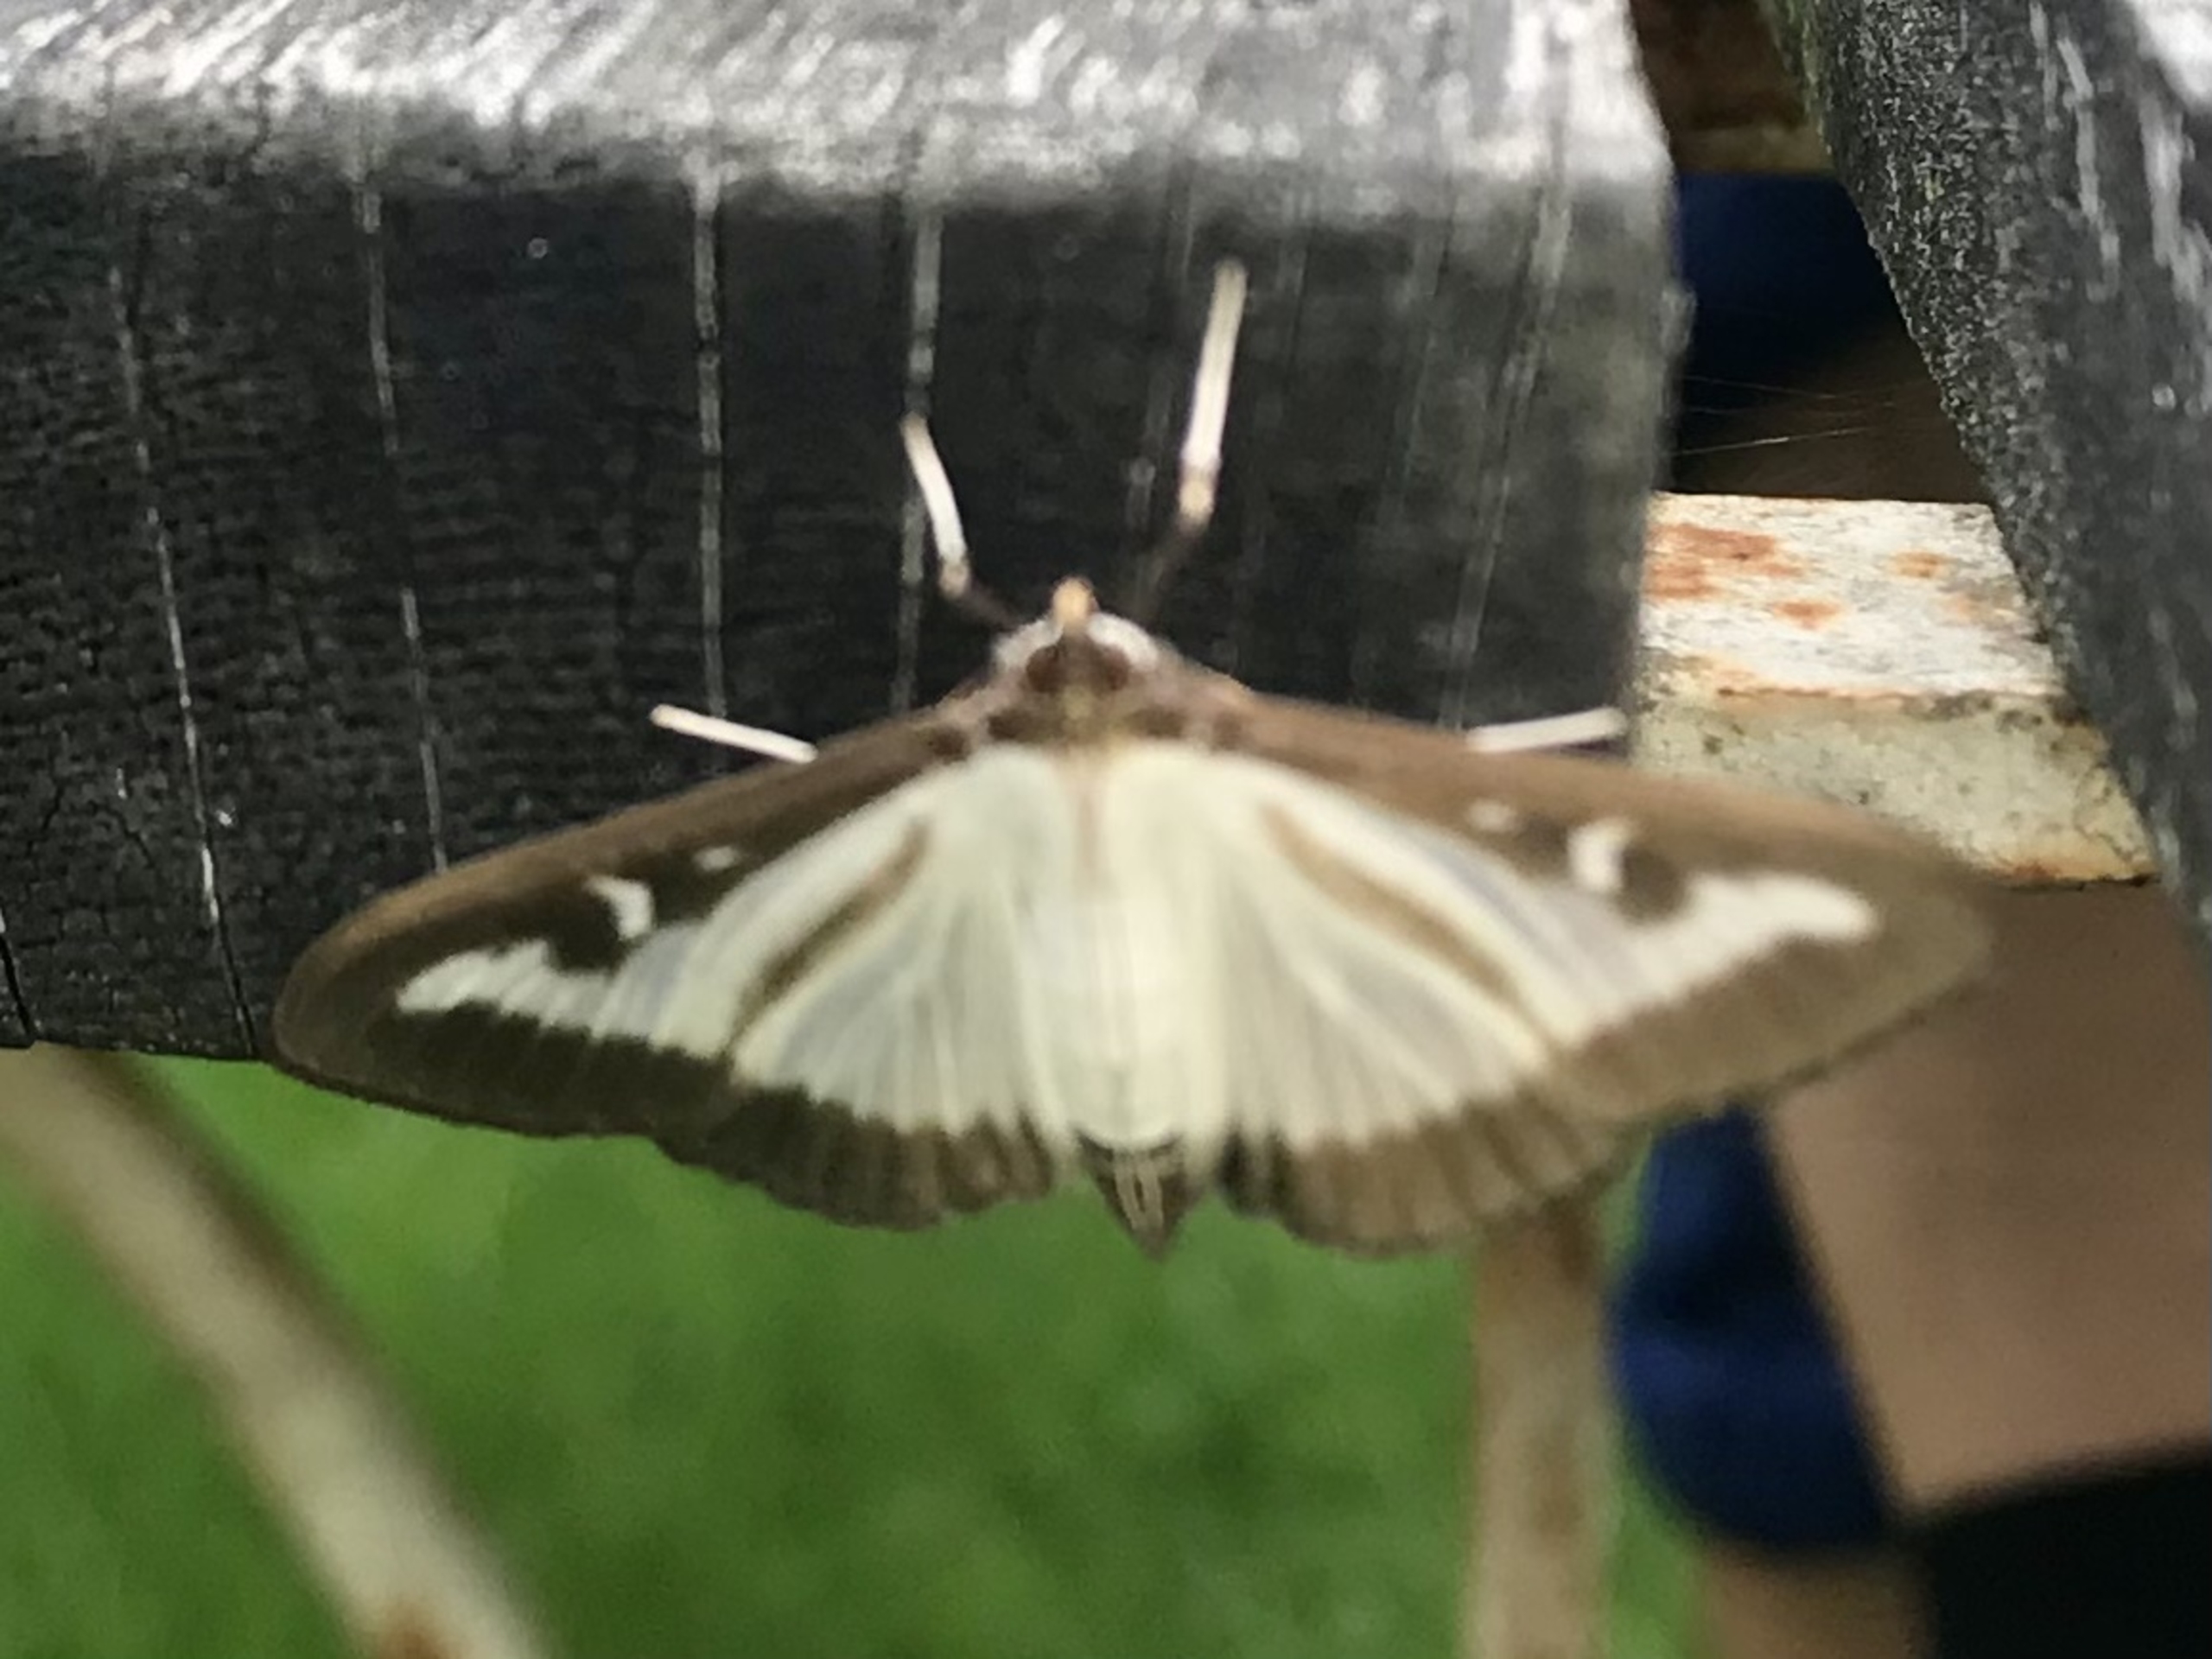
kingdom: Animalia
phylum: Arthropoda
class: Insecta
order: Lepidoptera
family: Crambidae
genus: Cydalima
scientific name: Cydalima perspectalis
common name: Buksbomhalvmøl
